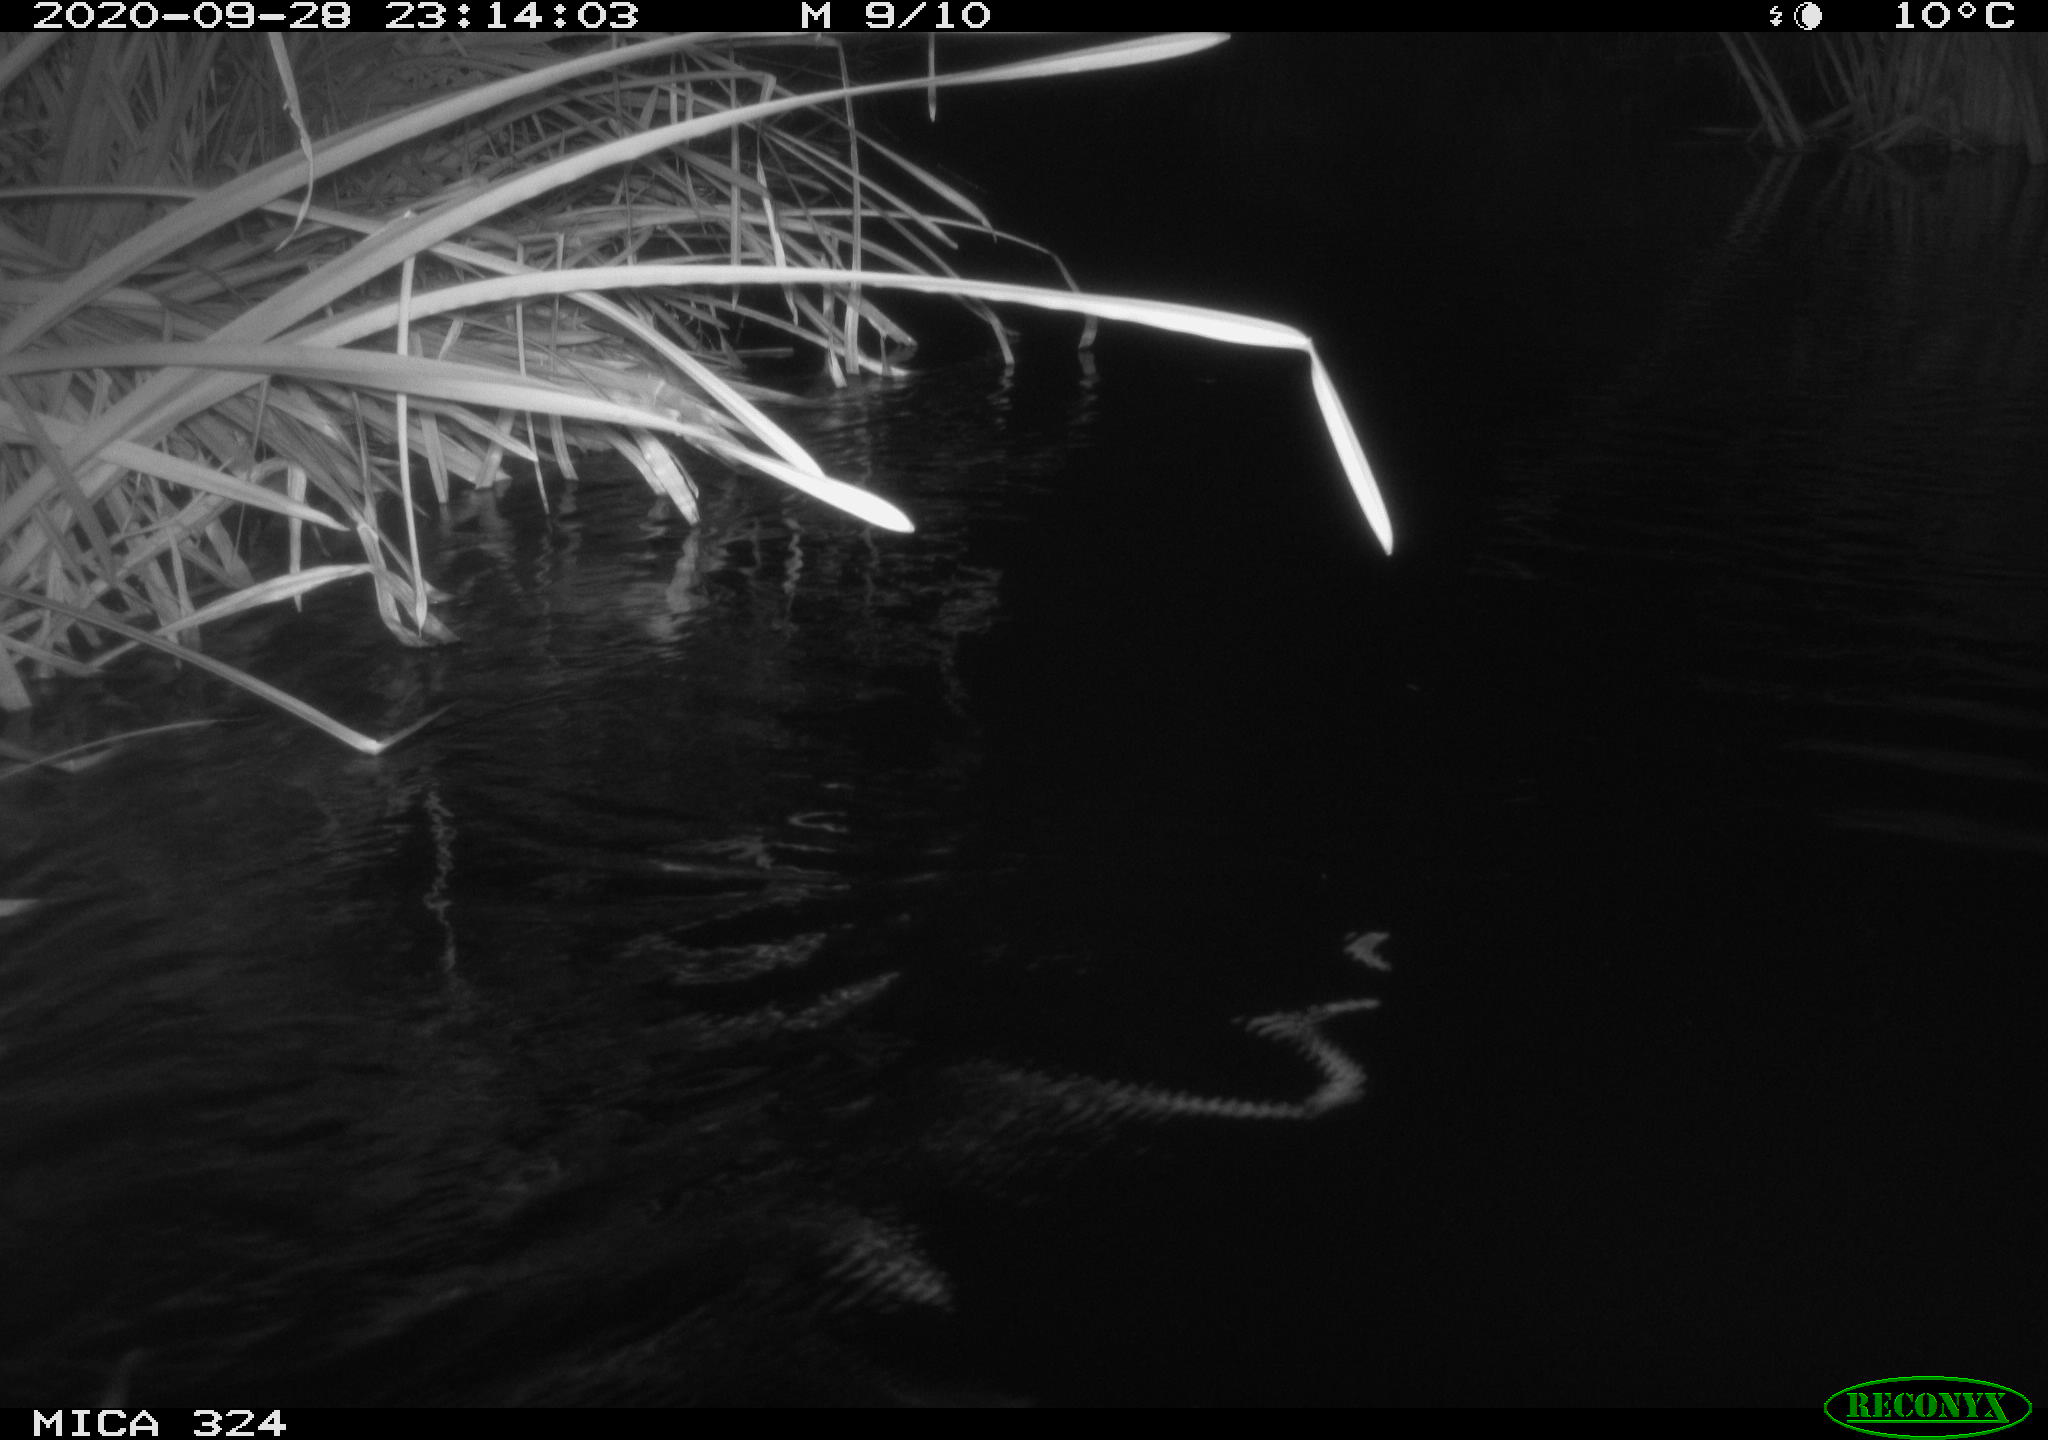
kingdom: Animalia
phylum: Chordata
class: Mammalia
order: Rodentia
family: Cricetidae
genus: Ondatra
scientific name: Ondatra zibethicus
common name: Muskrat
